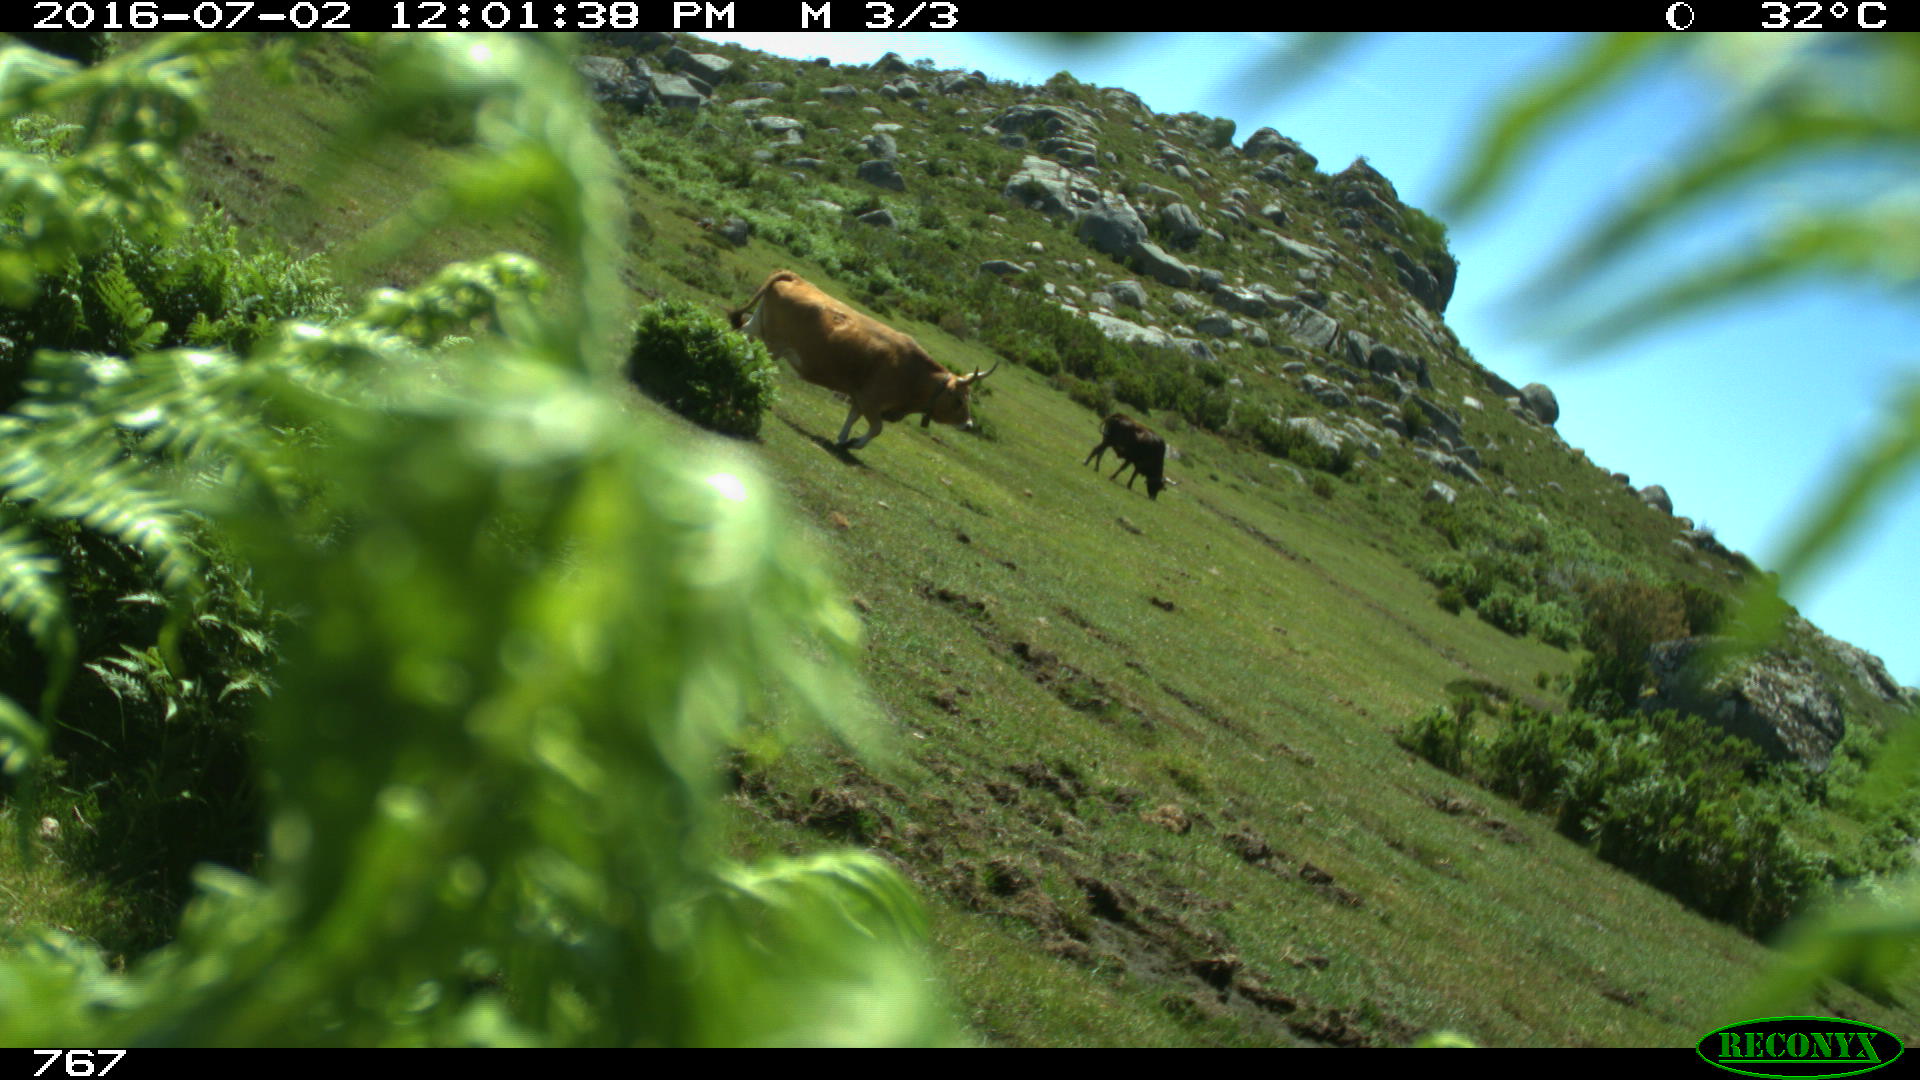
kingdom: Animalia
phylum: Chordata
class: Mammalia
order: Artiodactyla
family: Bovidae
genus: Bos
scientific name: Bos taurus
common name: Domesticated cattle
